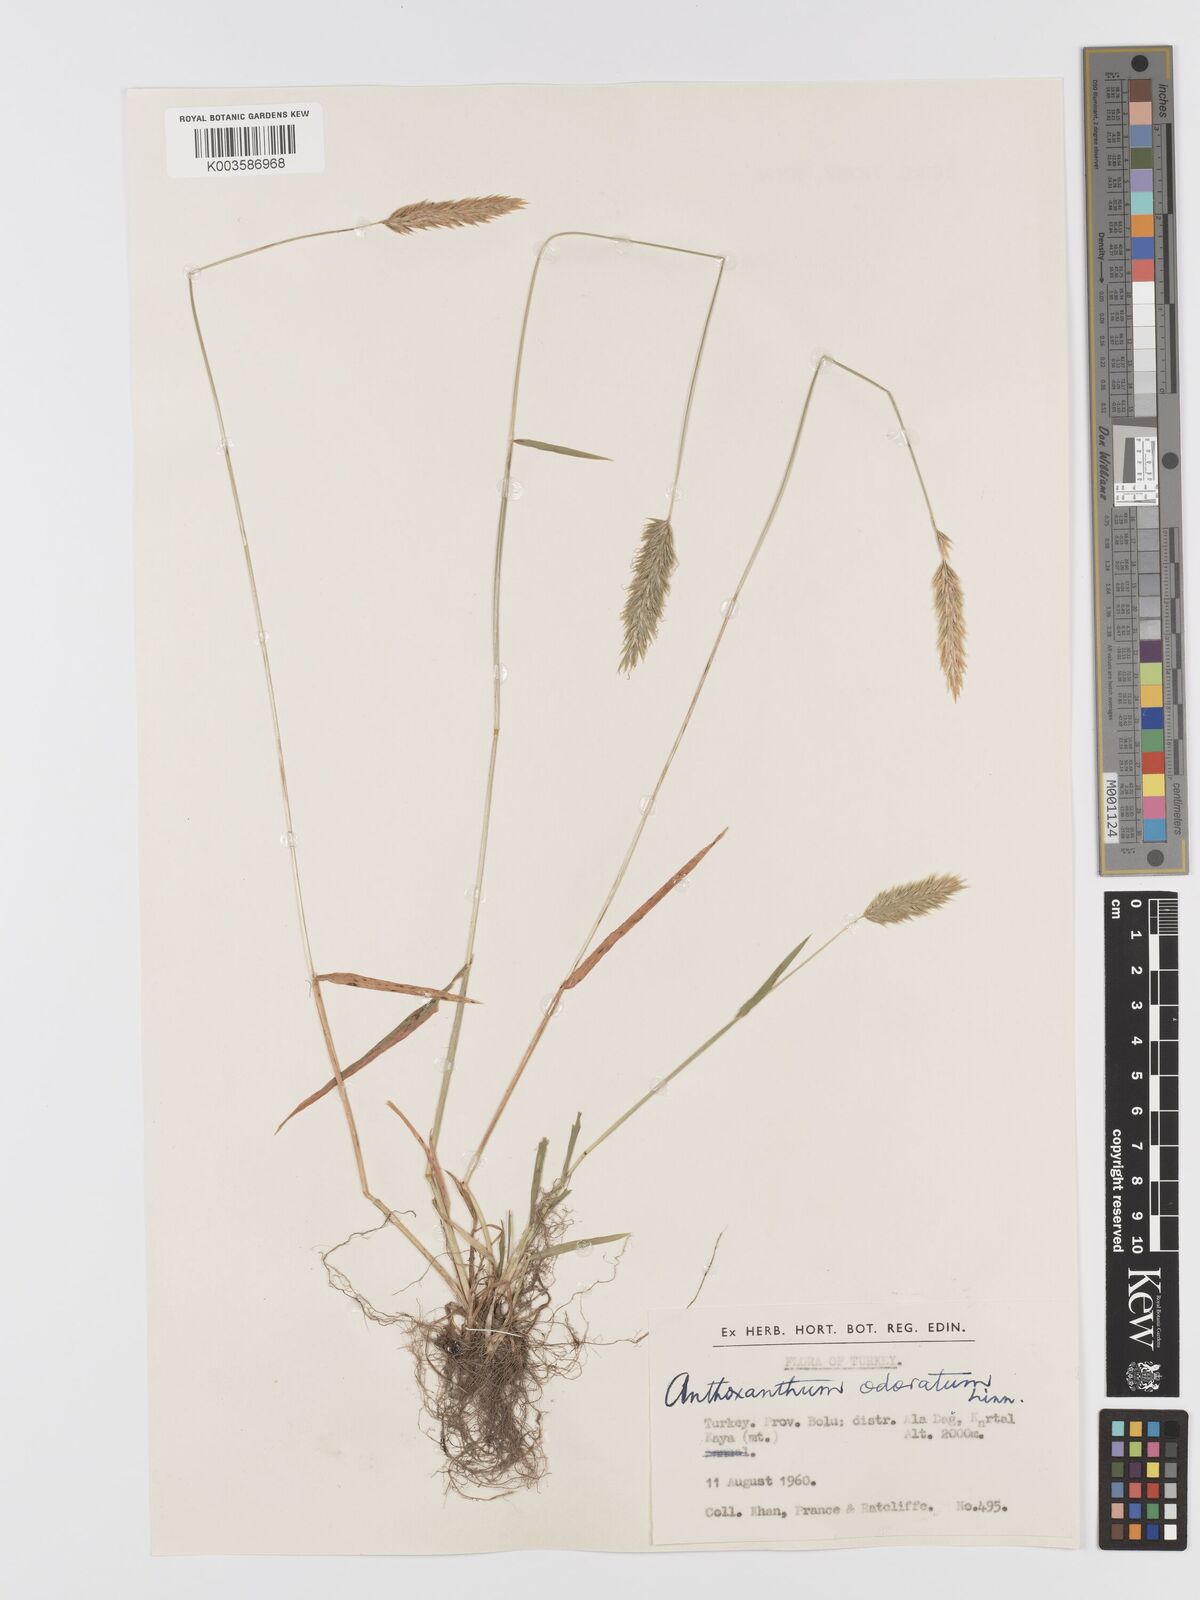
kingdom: Plantae
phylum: Tracheophyta
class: Liliopsida
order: Poales
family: Poaceae
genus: Anthoxanthum
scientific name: Anthoxanthum odoratum
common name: Sweet vernalgrass
